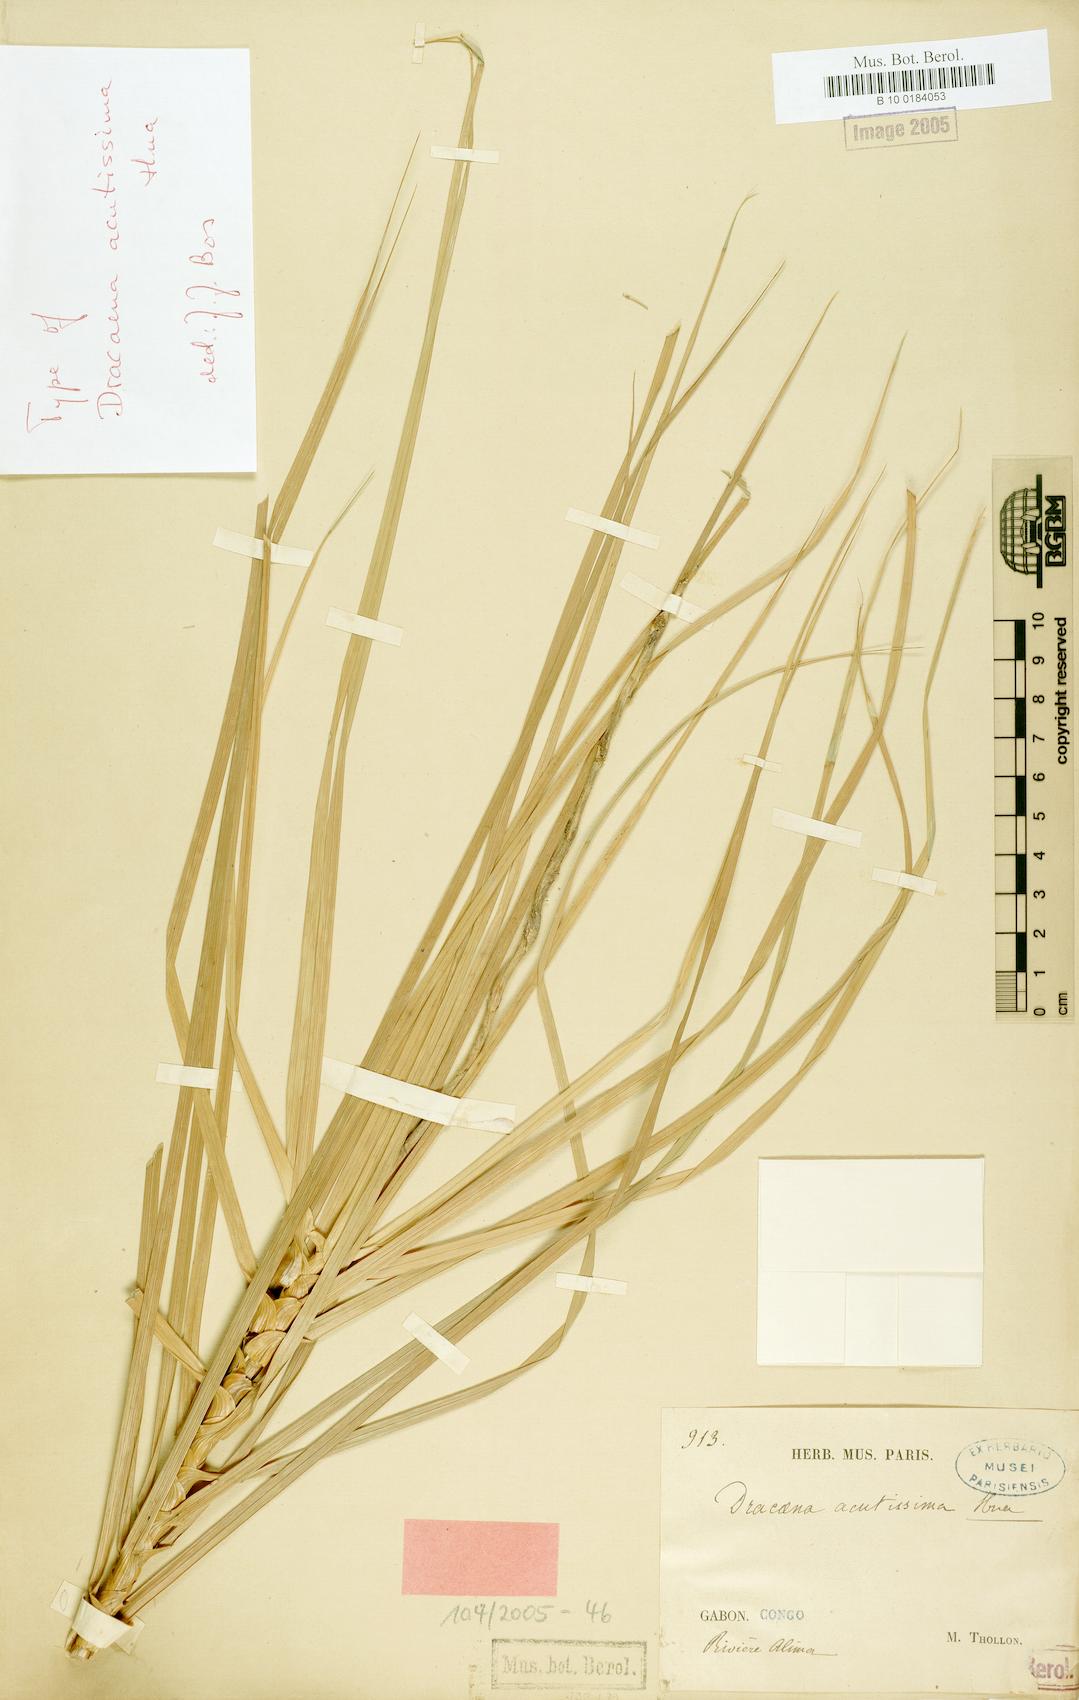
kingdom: Plantae
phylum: Tracheophyta
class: Liliopsida
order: Asparagales
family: Asparagaceae
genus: Dracaena
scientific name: Dracaena acutissima
